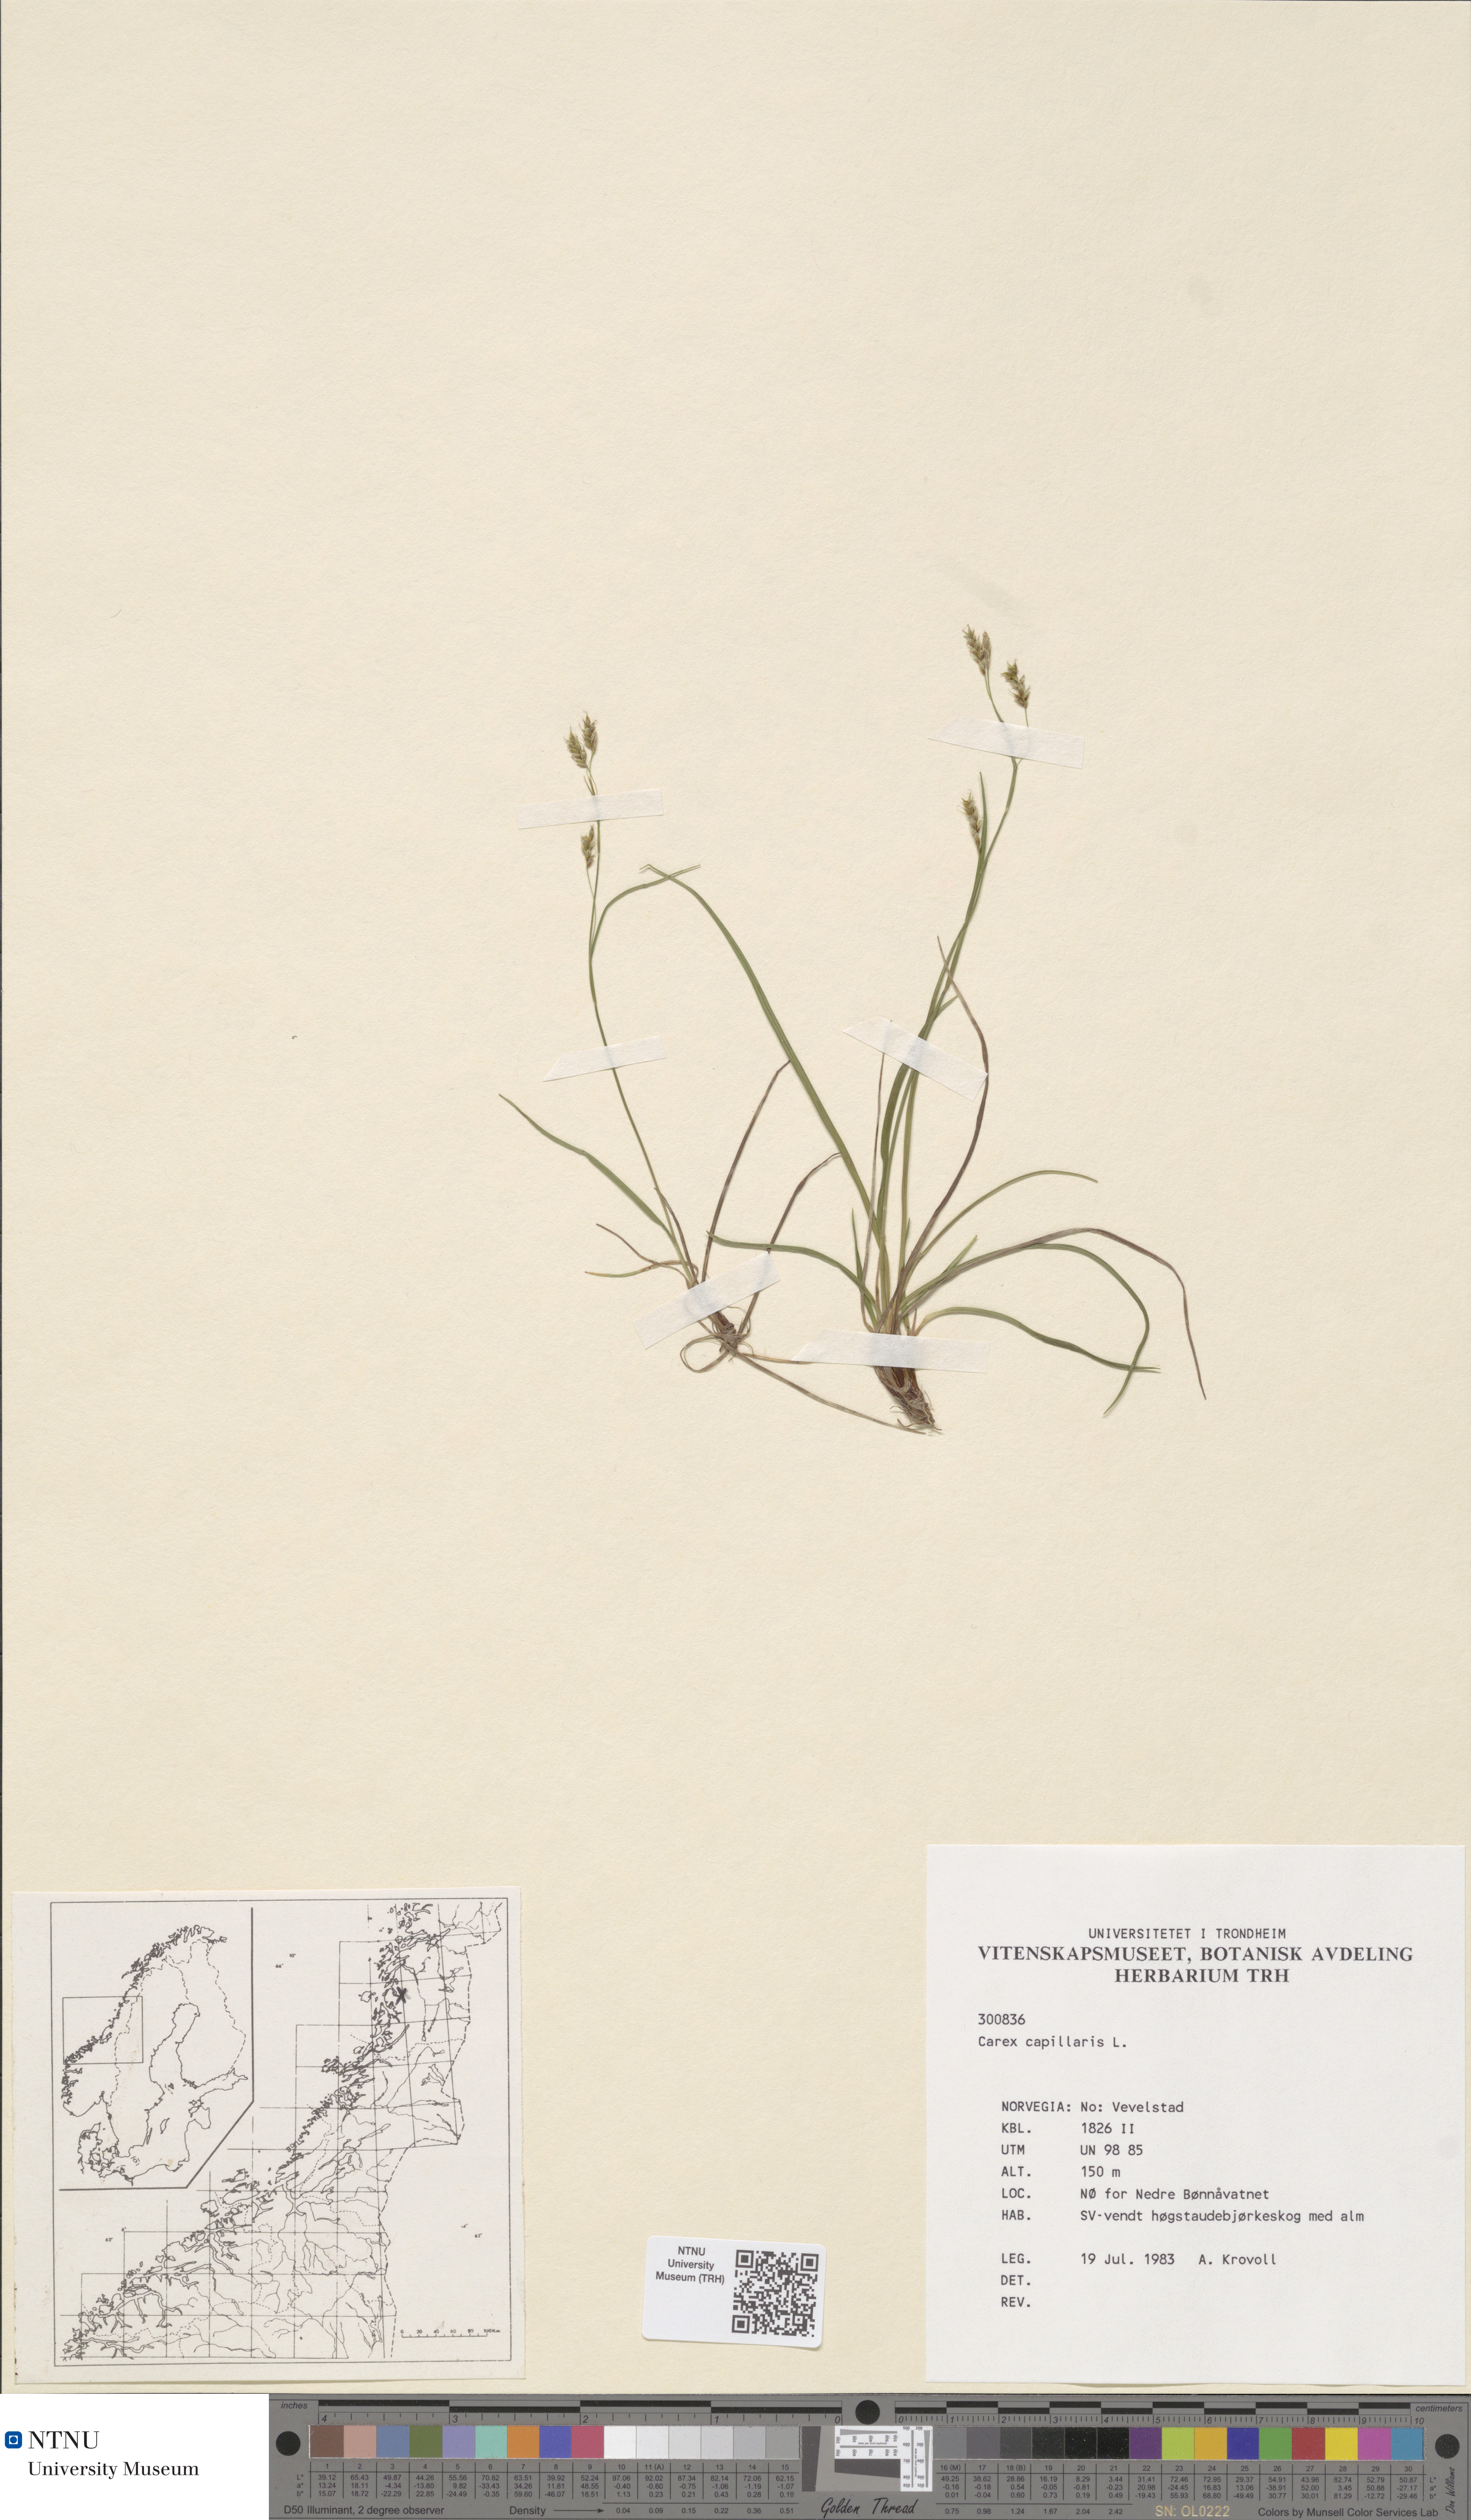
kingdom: Plantae
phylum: Tracheophyta
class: Liliopsida
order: Poales
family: Cyperaceae
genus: Carex
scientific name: Carex capillaris
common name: Hair sedge
